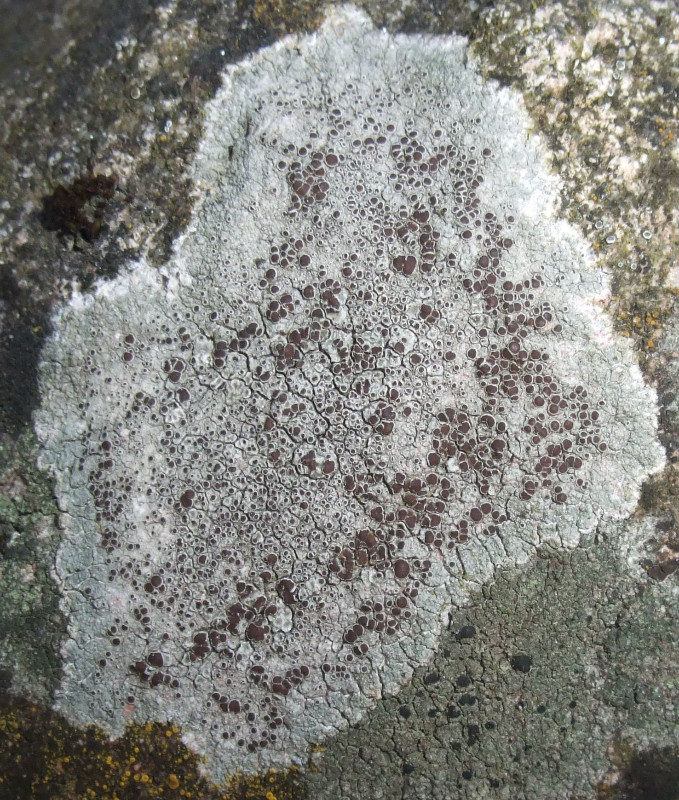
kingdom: Fungi
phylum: Ascomycota
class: Lecanoromycetes
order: Lecanorales
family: Lecanoraceae
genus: Lecanora
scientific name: Lecanora campestris
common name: mur-kantskivelav
